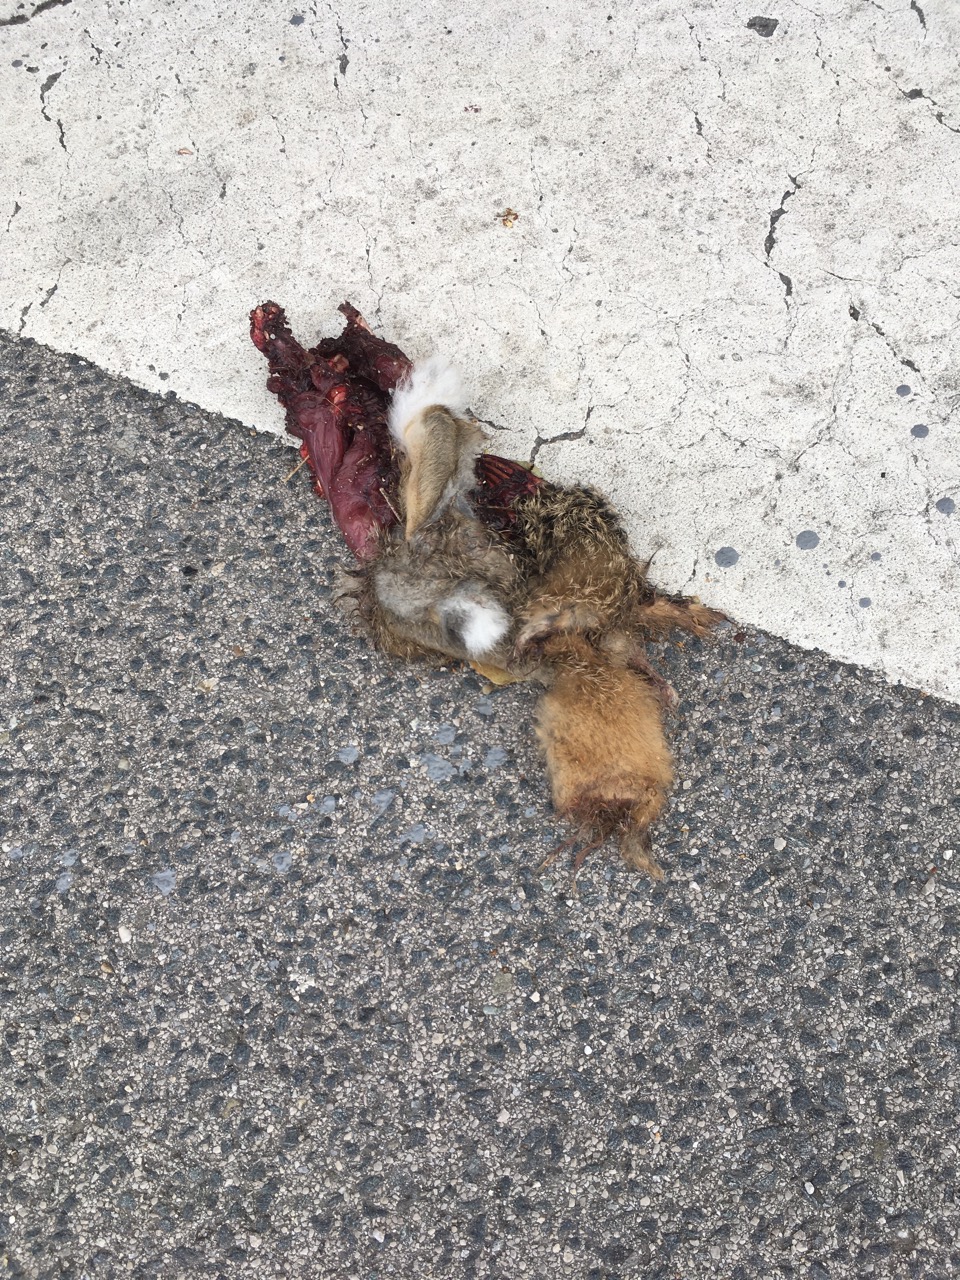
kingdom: Animalia
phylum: Chordata
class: Mammalia
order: Lagomorpha
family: Leporidae
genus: Lepus
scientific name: Lepus europaeus
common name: European hare
